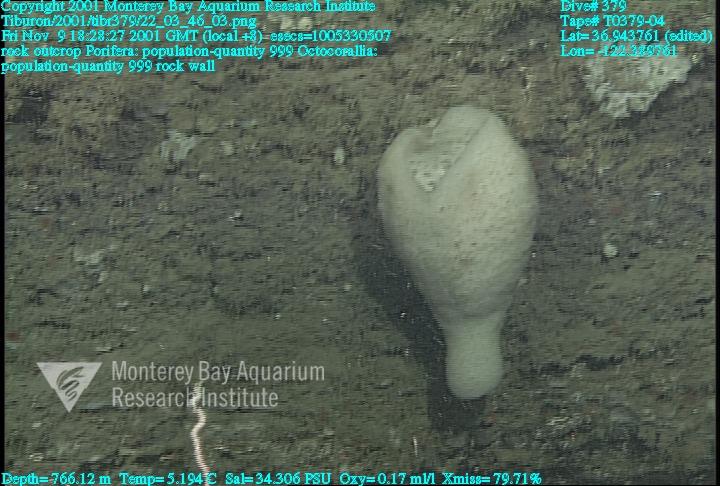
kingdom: Animalia
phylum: Porifera
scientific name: Porifera
